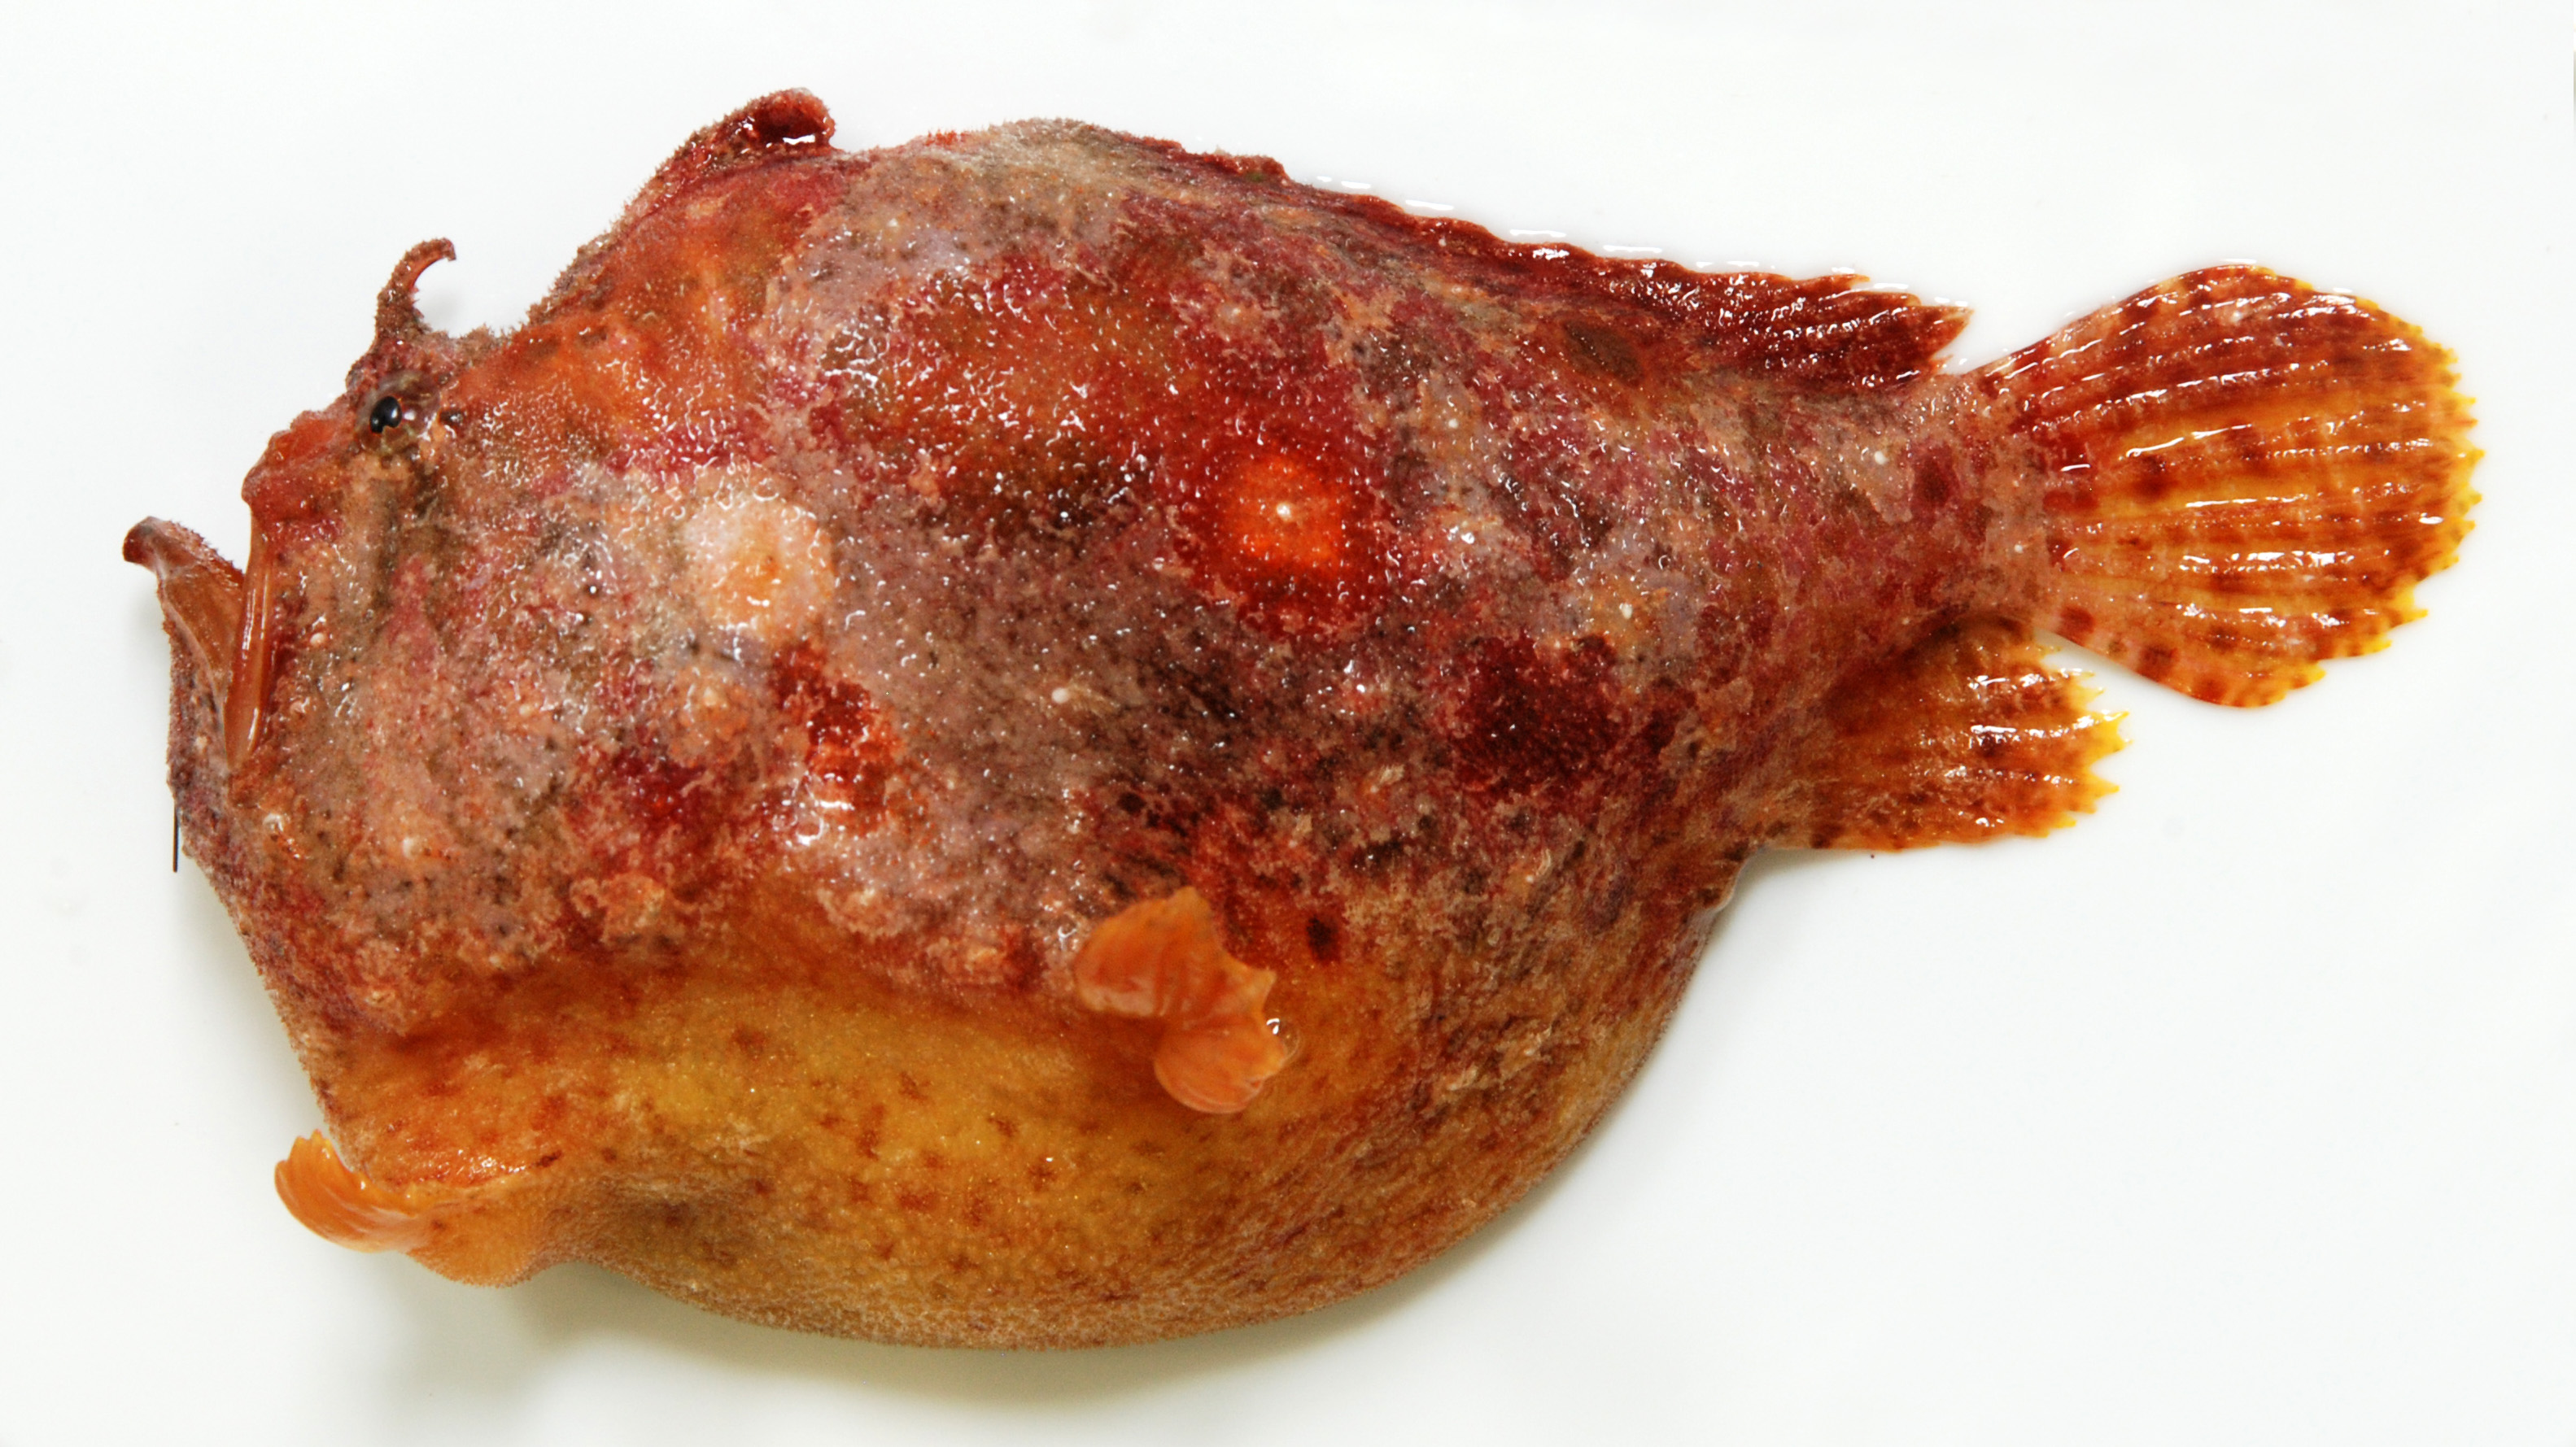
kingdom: Animalia
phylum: Chordata
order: Lophiiformes
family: Antennariidae
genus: Antennatus
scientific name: Antennatus coccineus
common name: Scarlet frogfish
